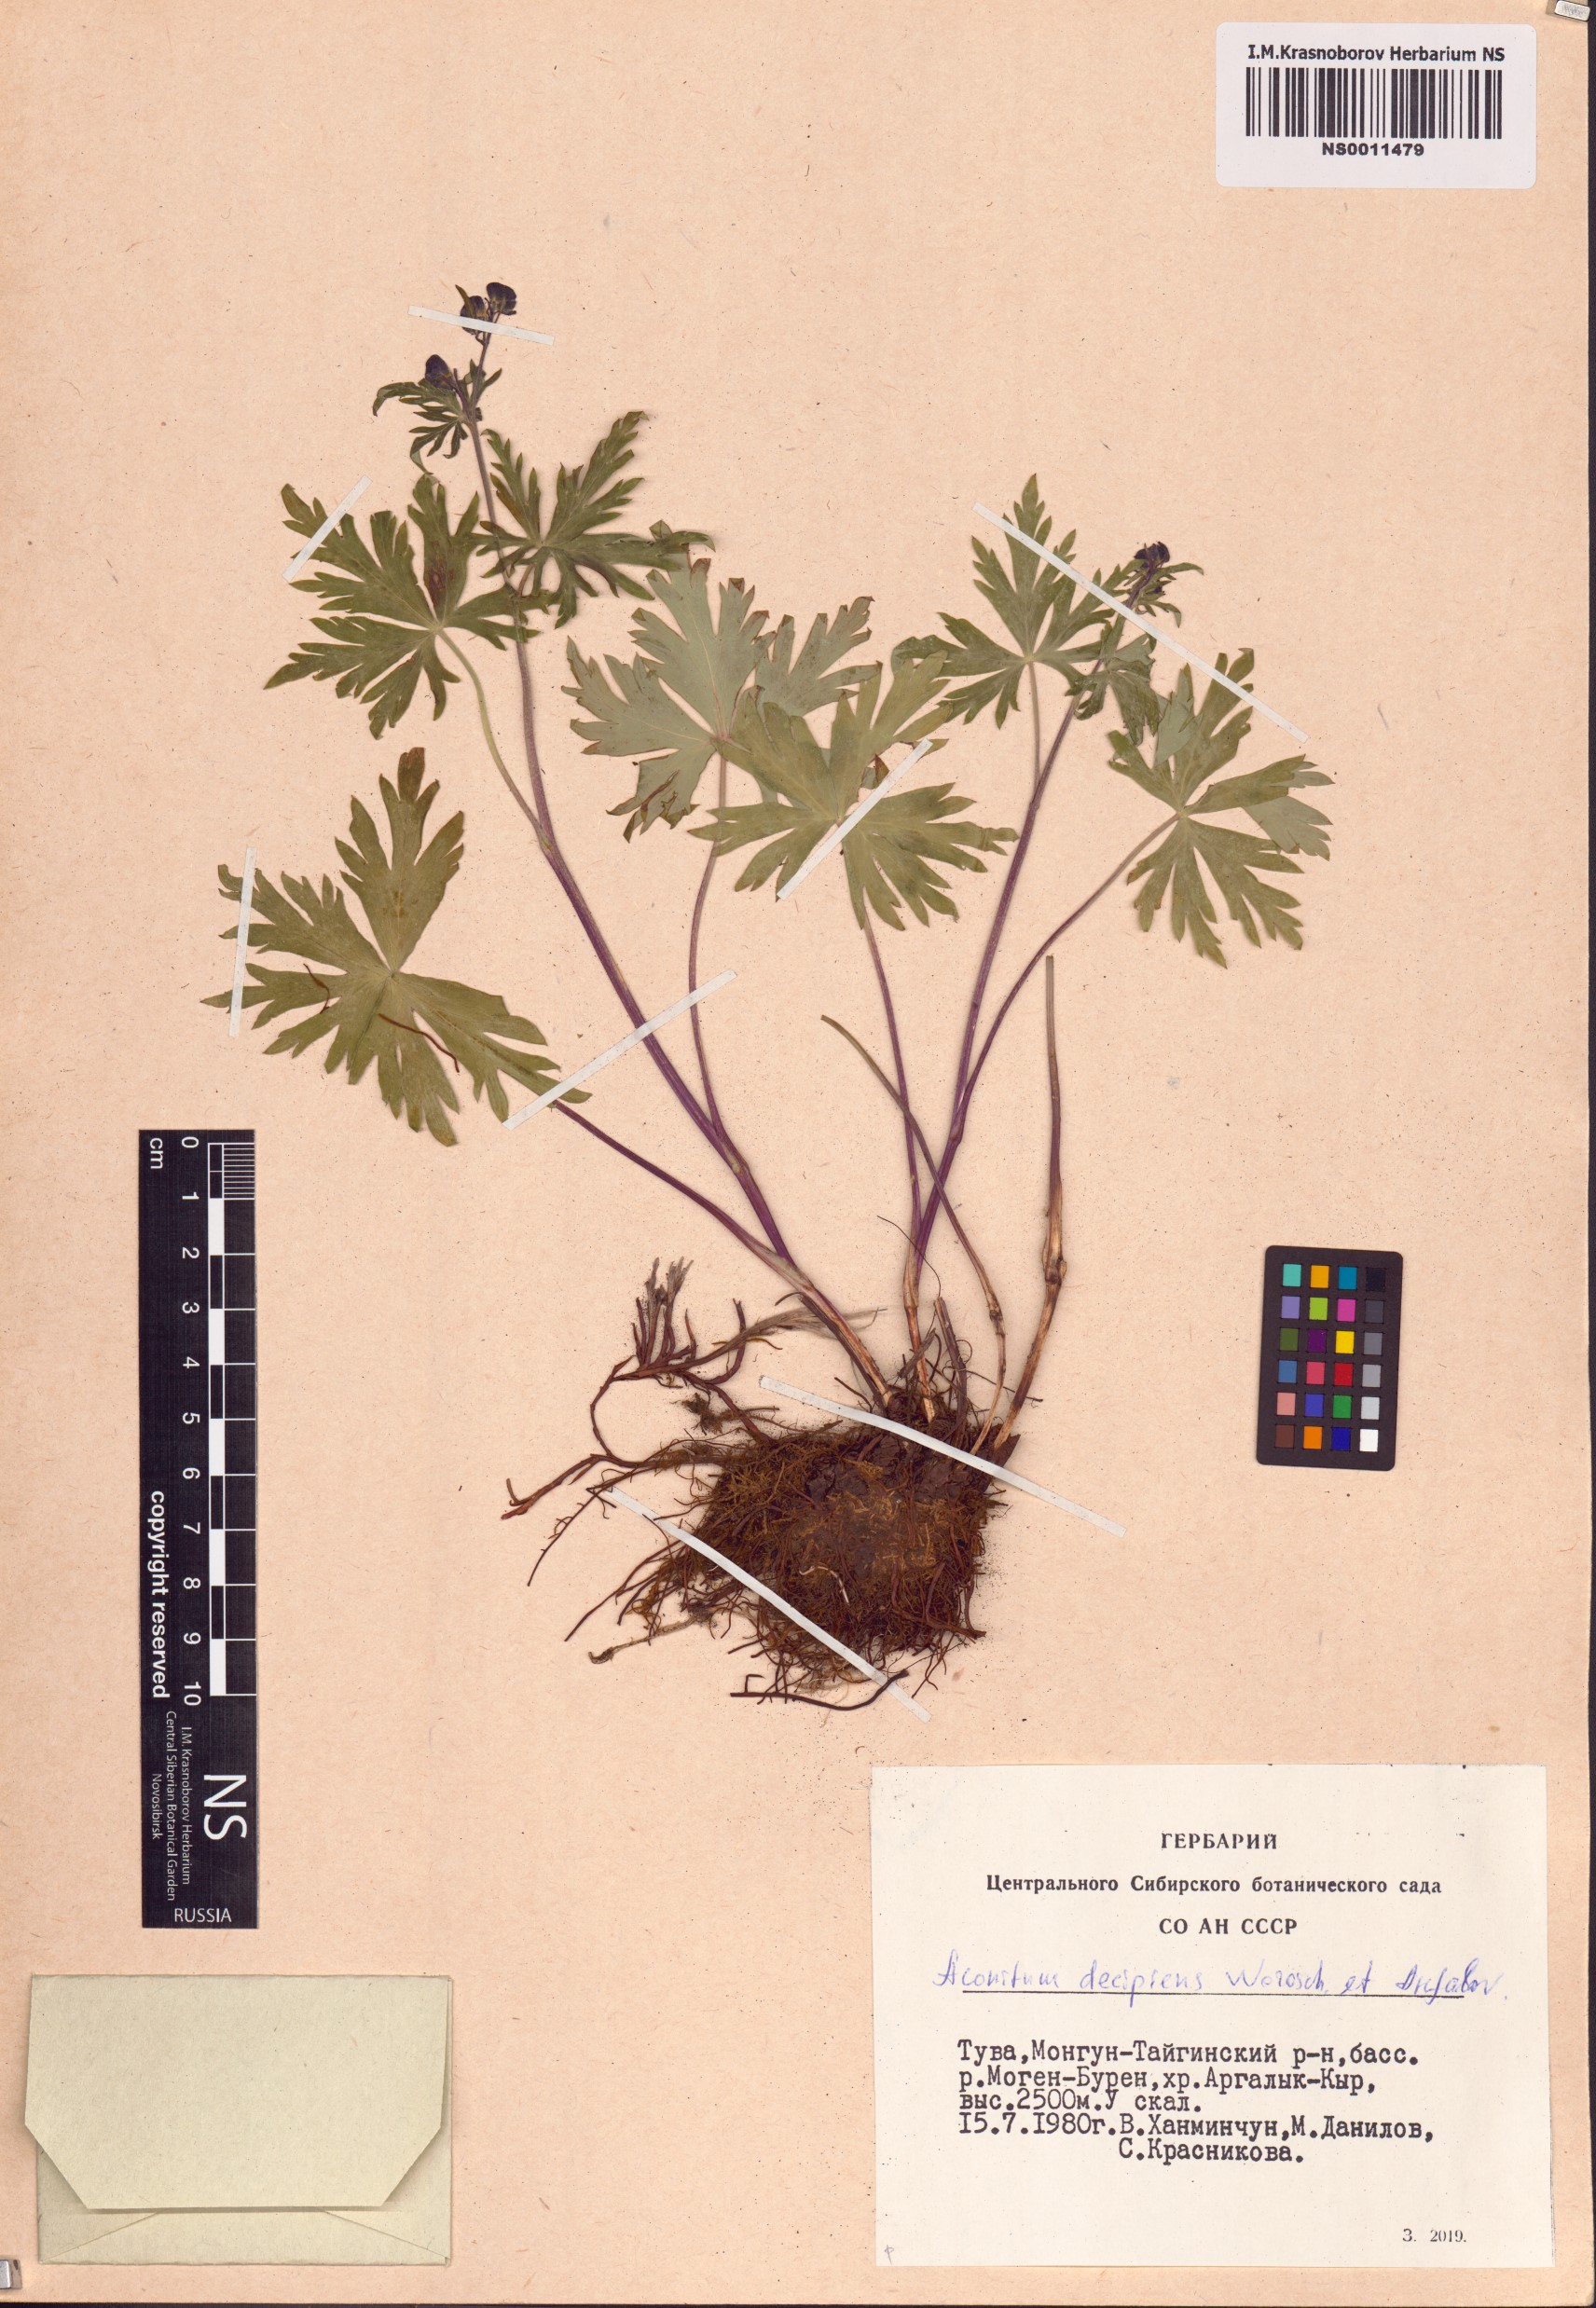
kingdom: Plantae
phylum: Tracheophyta
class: Magnoliopsida
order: Ranunculales
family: Ranunculaceae
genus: Aconitum
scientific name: Aconitum decipiens
